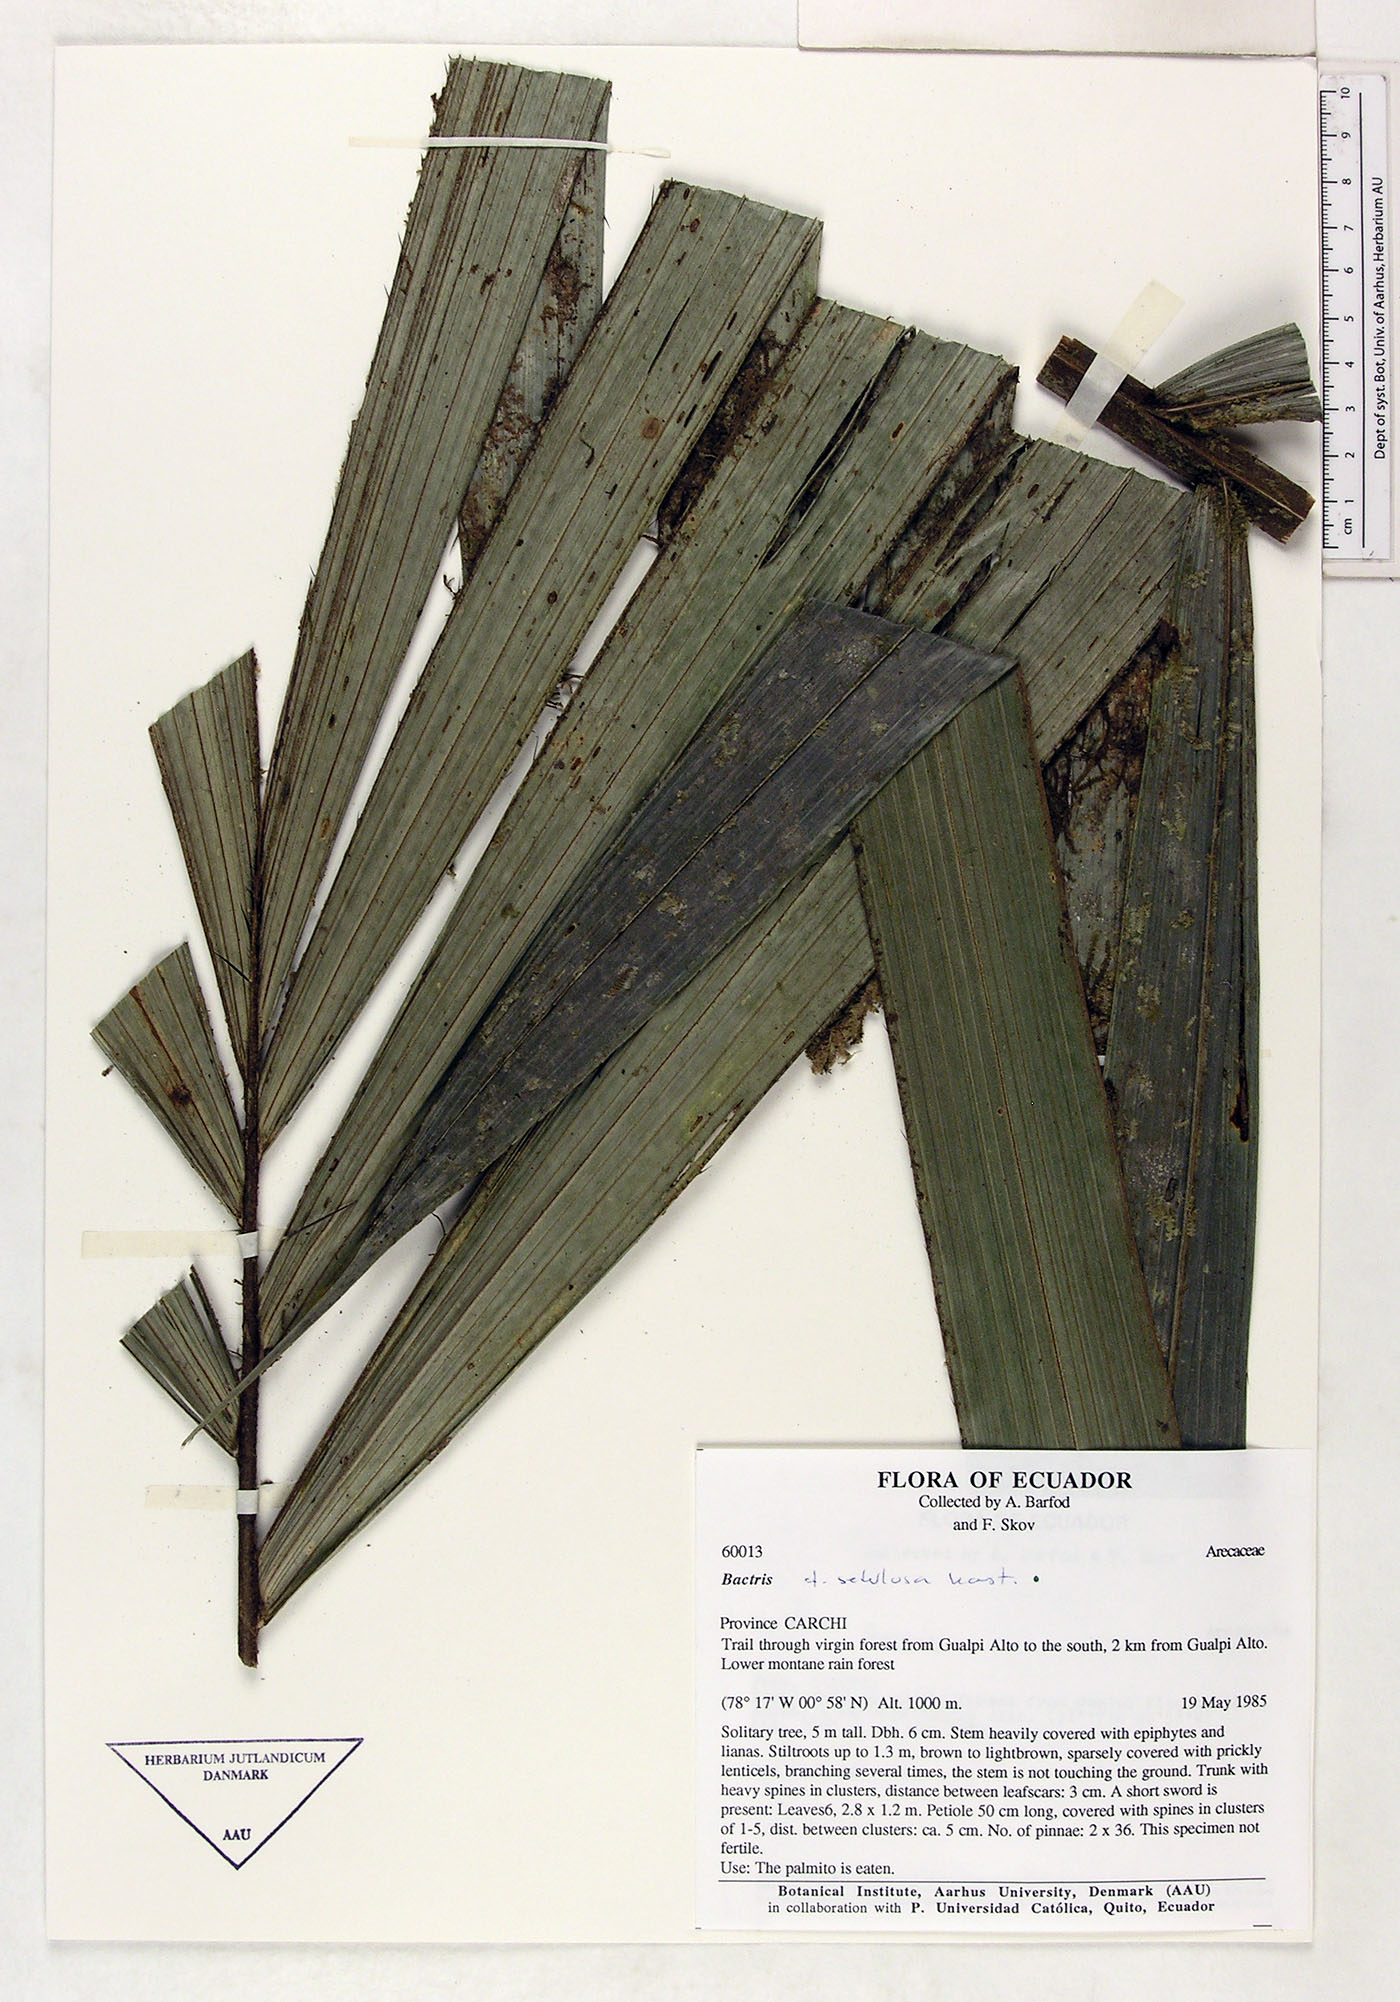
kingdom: Plantae
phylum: Tracheophyta
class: Liliopsida
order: Arecales
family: Arecaceae
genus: Bactris
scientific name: Bactris setulosa
